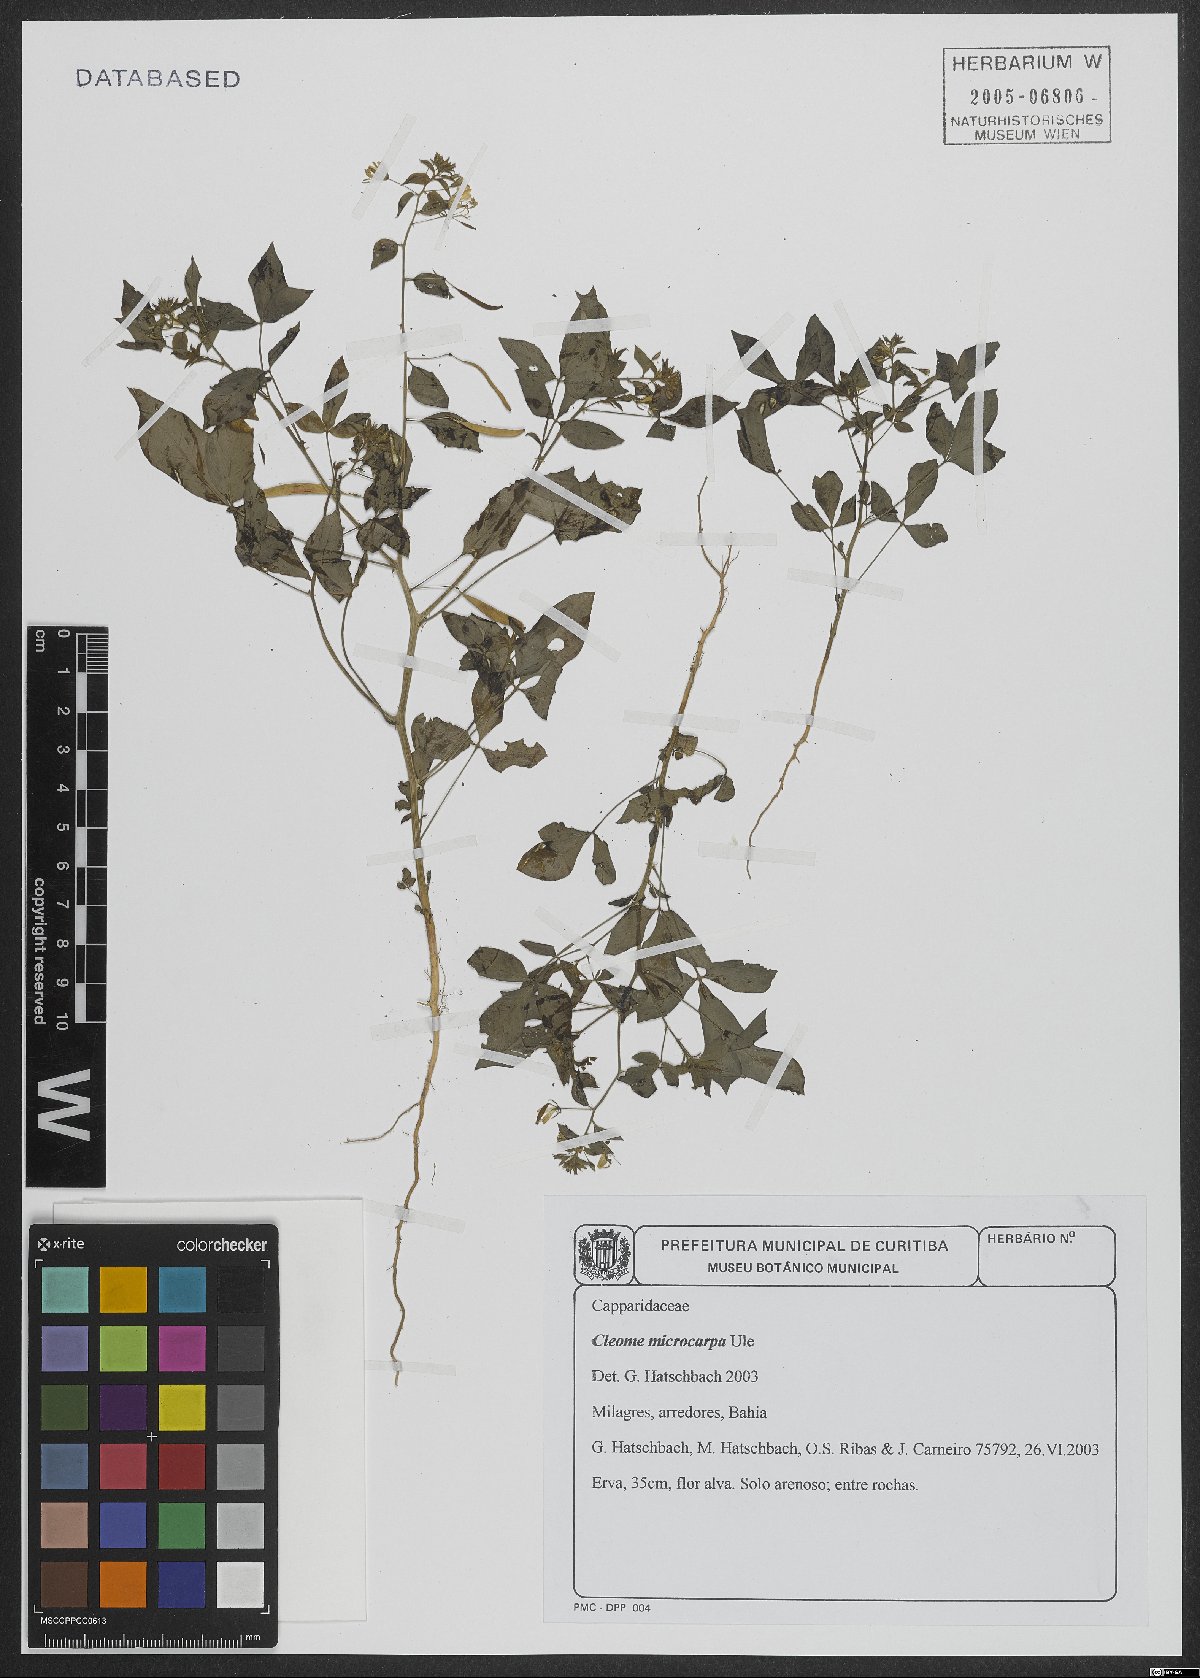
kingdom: Plantae
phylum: Tracheophyta
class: Magnoliopsida
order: Brassicales
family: Cleomaceae
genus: Tarenaya
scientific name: Tarenaya microcarpa
